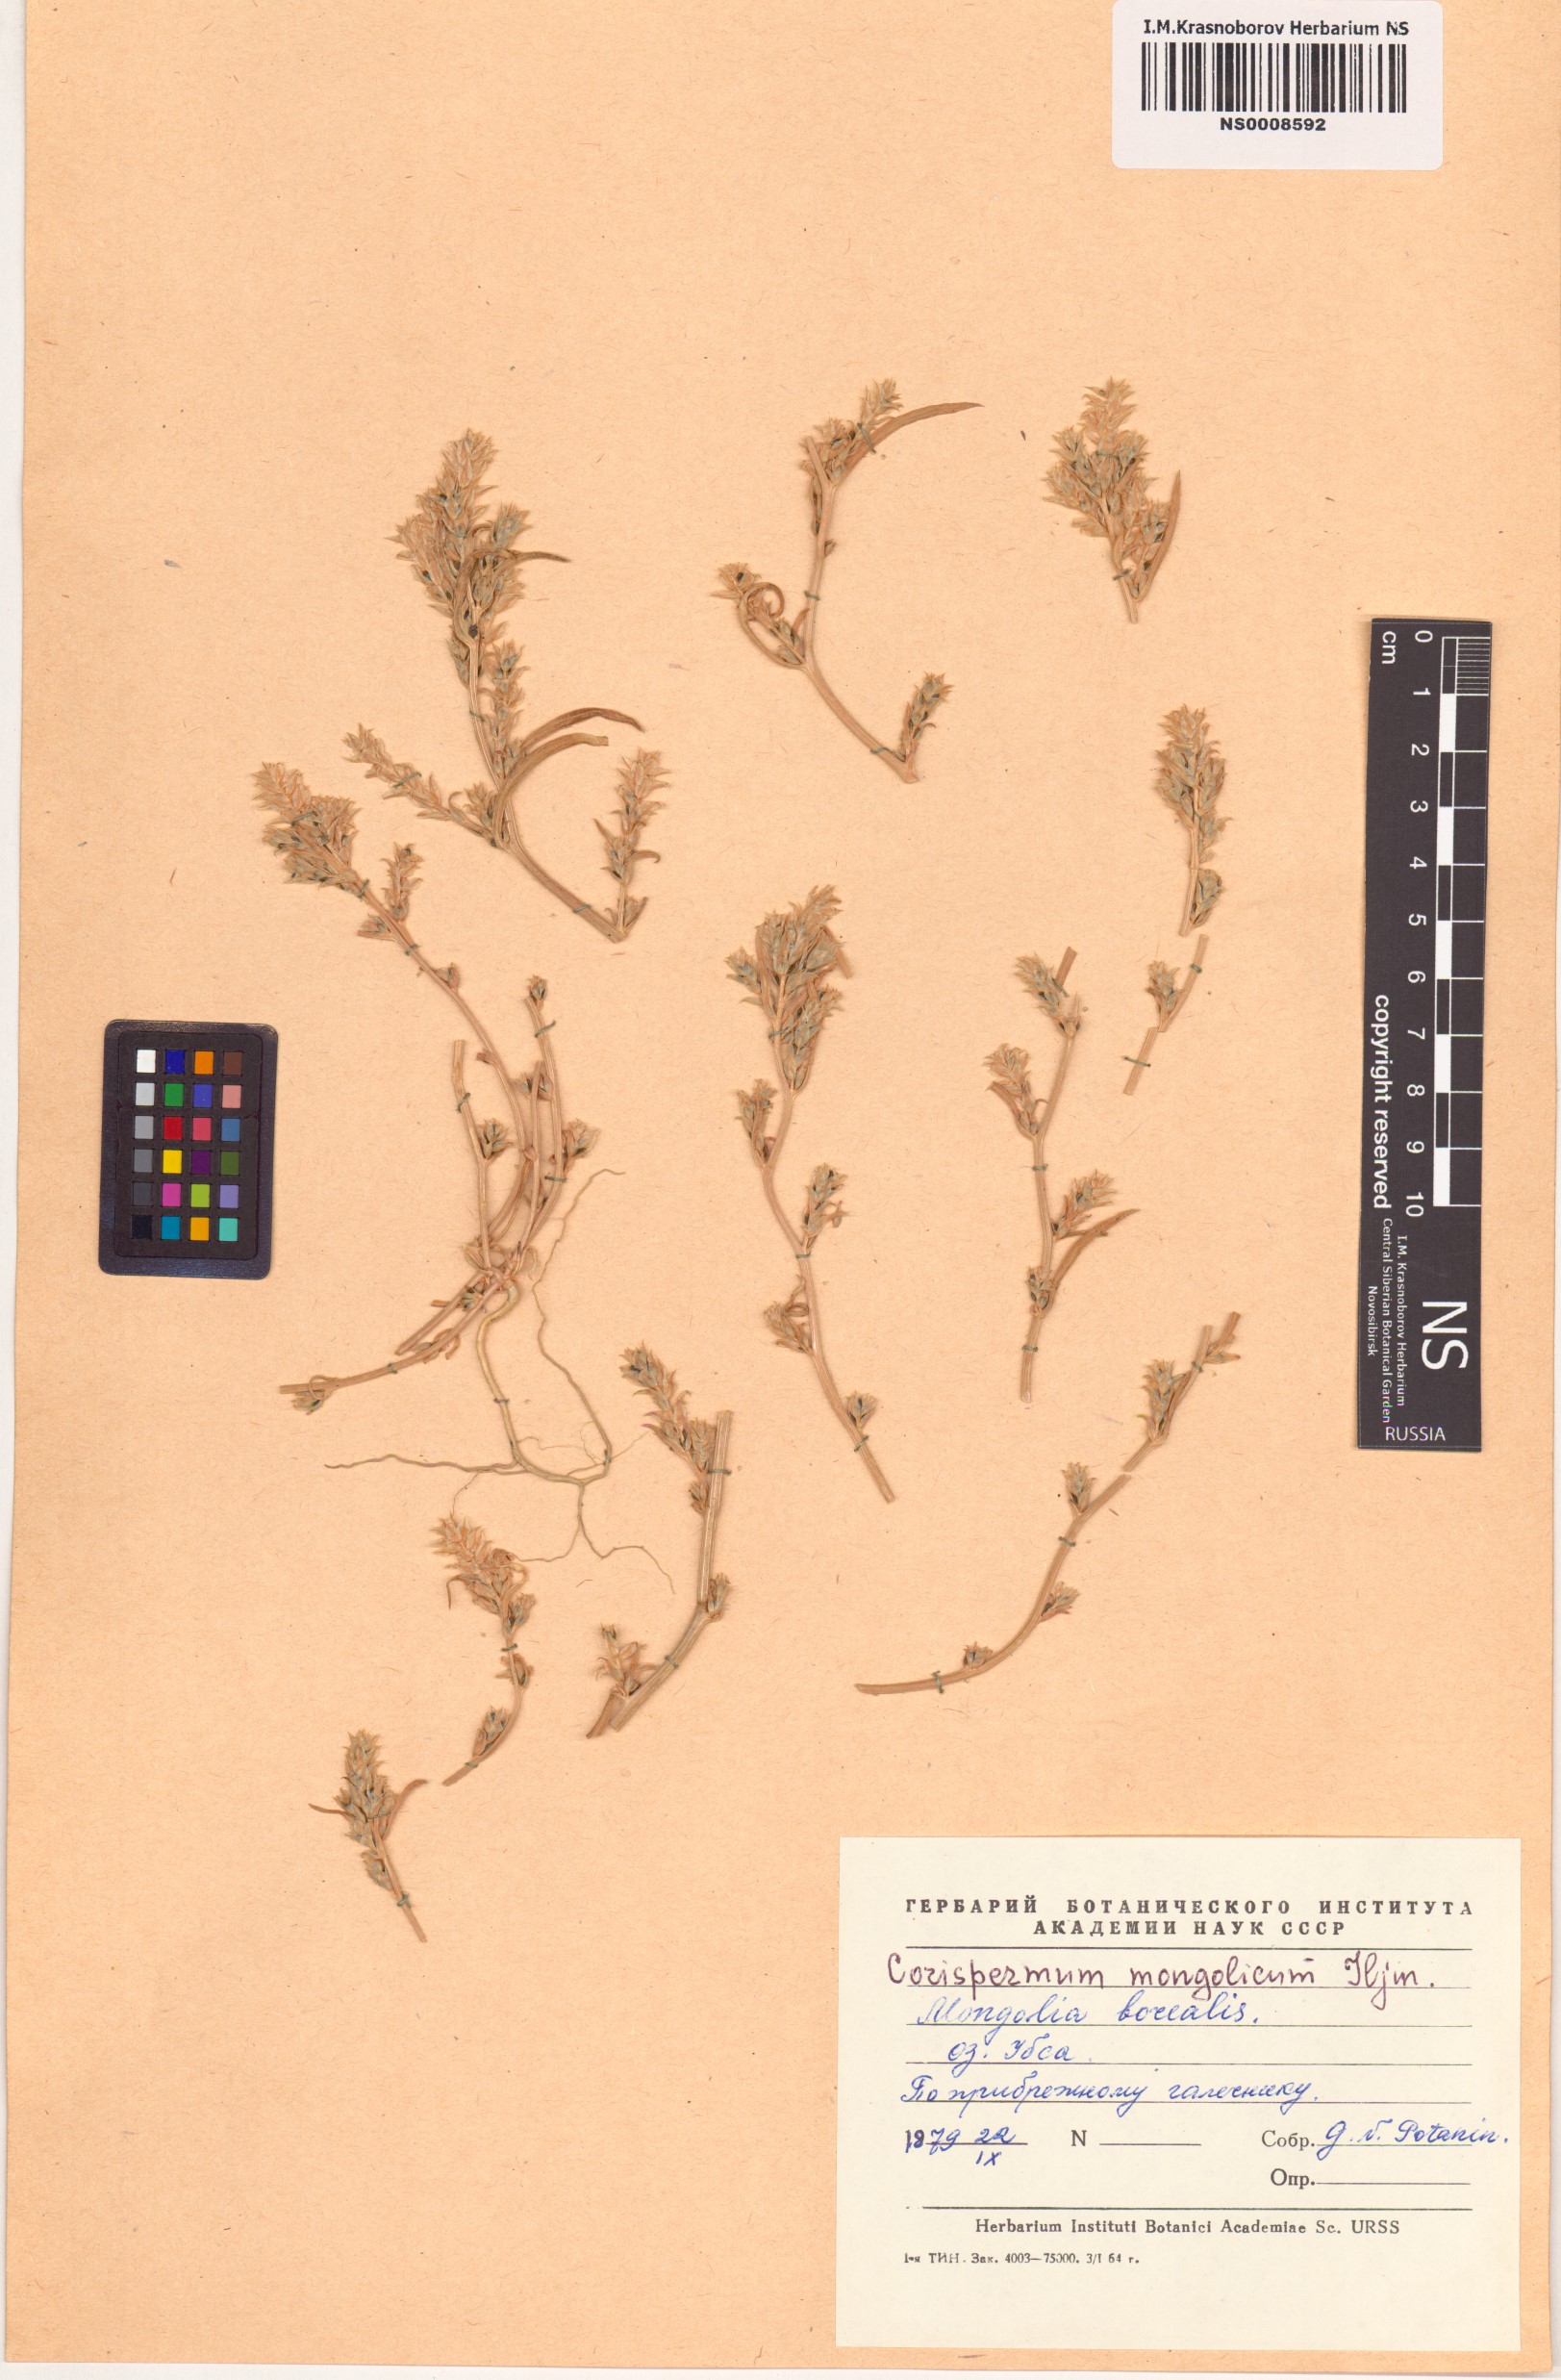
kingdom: Plantae
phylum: Tracheophyta
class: Magnoliopsida
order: Caryophyllales
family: Amaranthaceae
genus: Corispermum
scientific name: Corispermum mongolicum
